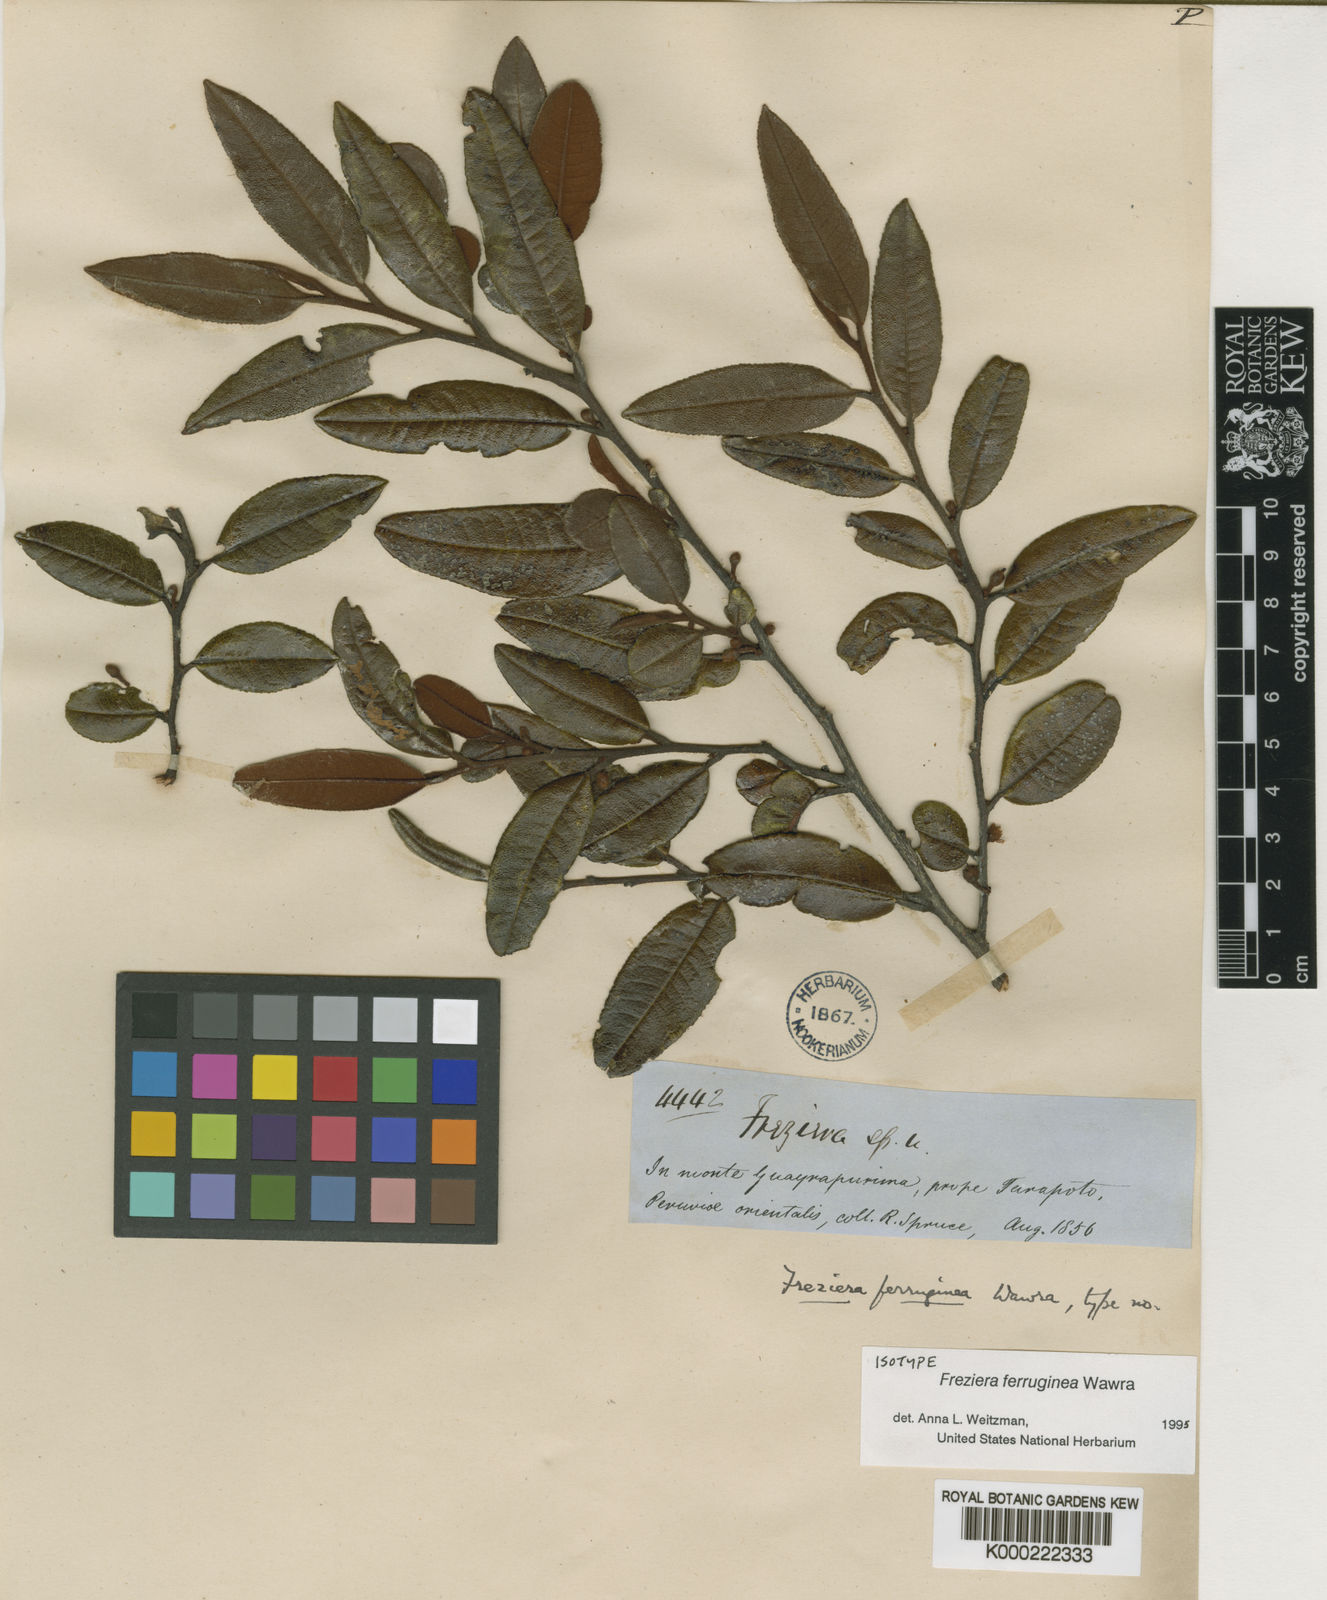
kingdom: Plantae
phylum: Tracheophyta
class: Magnoliopsida
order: Ericales
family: Pentaphylacaceae
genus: Freziera
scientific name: Freziera ferruginea
